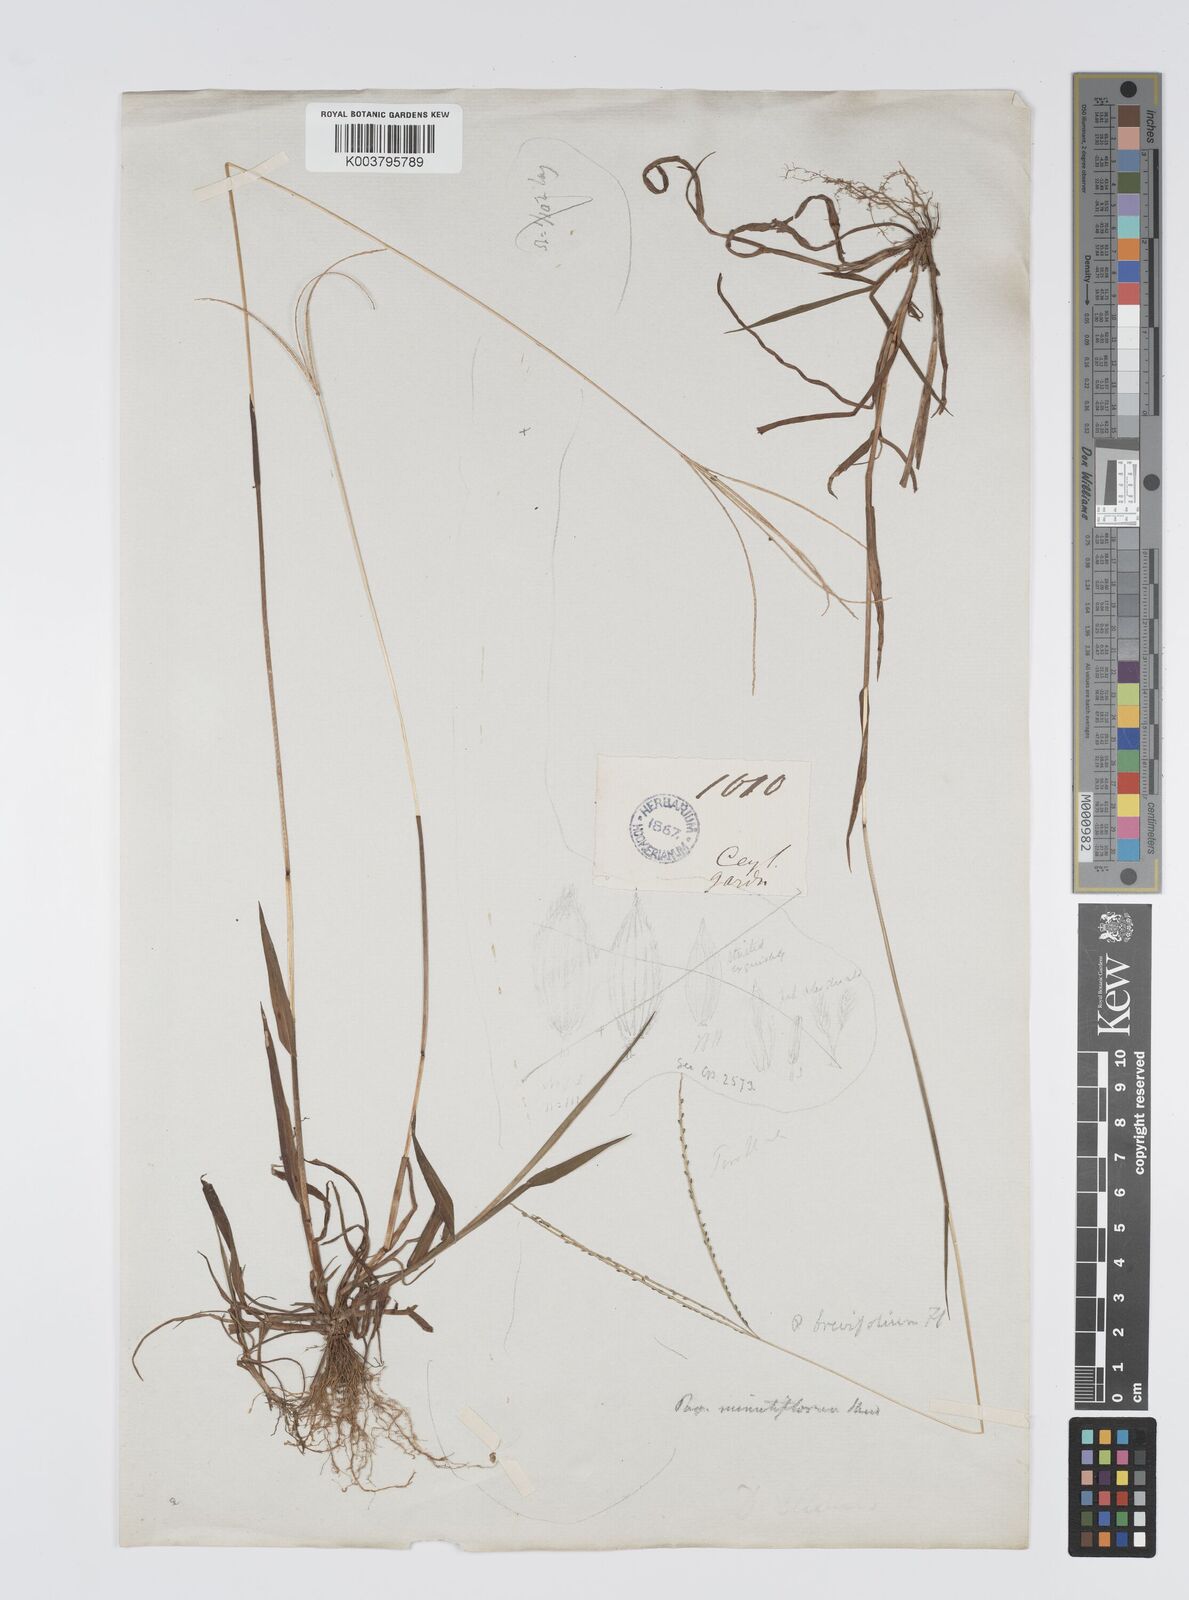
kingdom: Plantae
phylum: Tracheophyta
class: Liliopsida
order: Poales
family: Poaceae
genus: Digitaria
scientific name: Digitaria violascens
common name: Violet crabgrass
